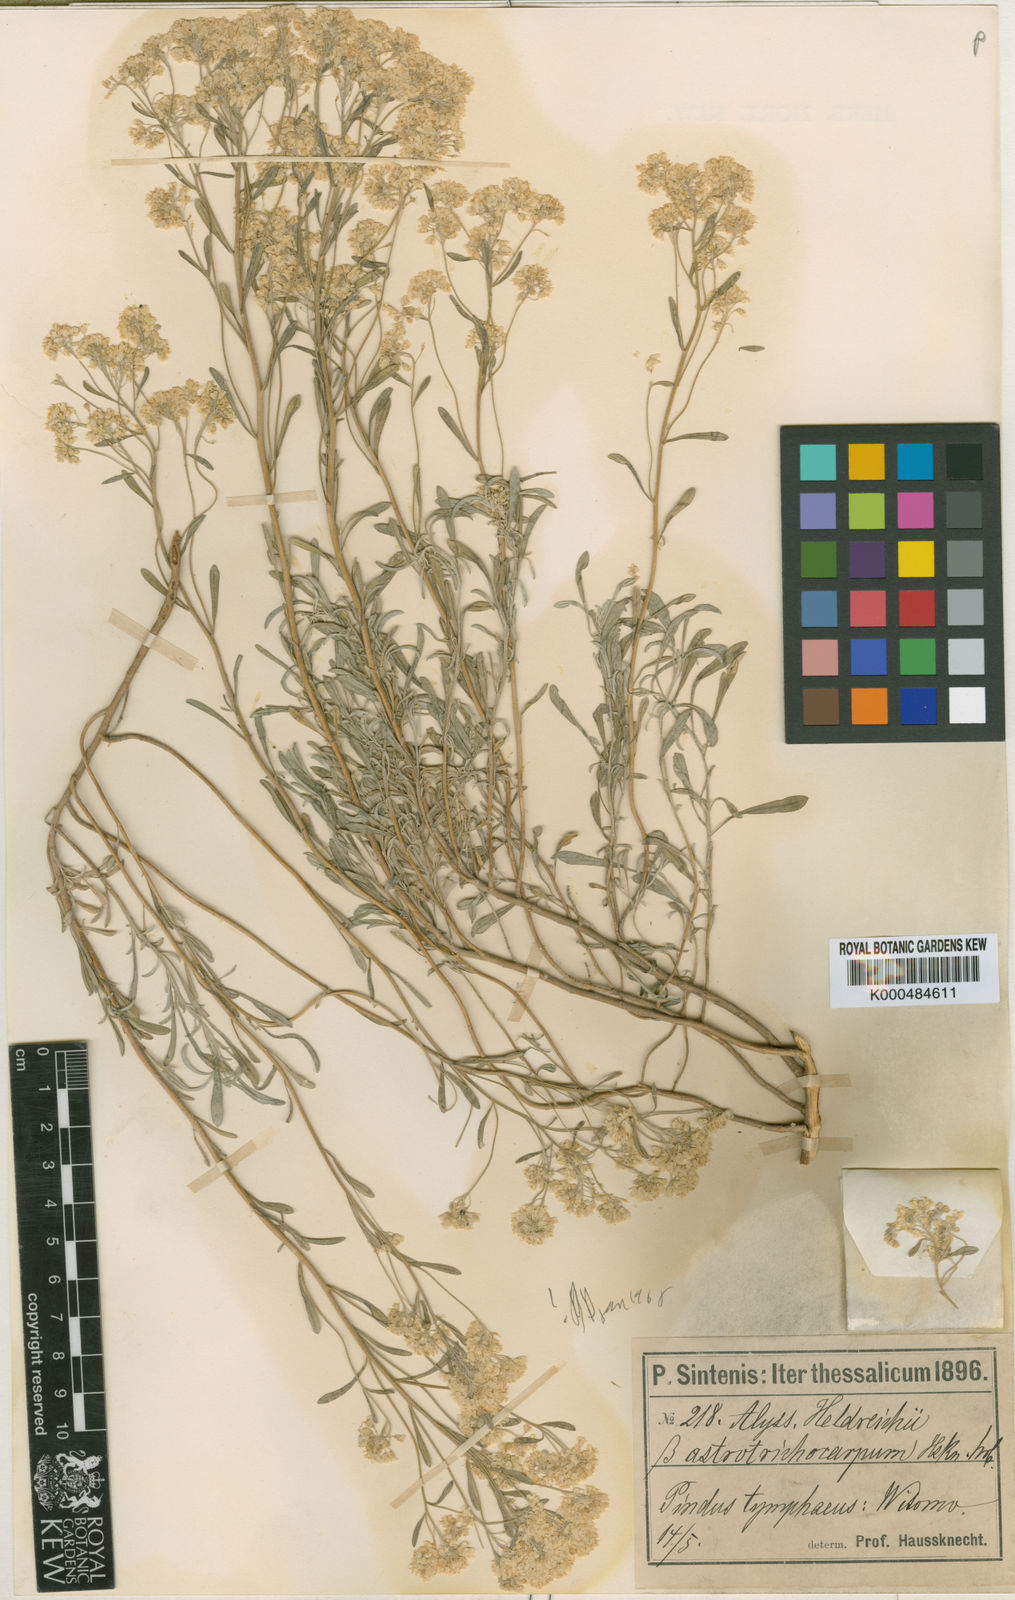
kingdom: Plantae
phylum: Tracheophyta
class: Magnoliopsida
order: Brassicales
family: Brassicaceae
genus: Odontarrhena
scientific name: Odontarrhena heldreichii
